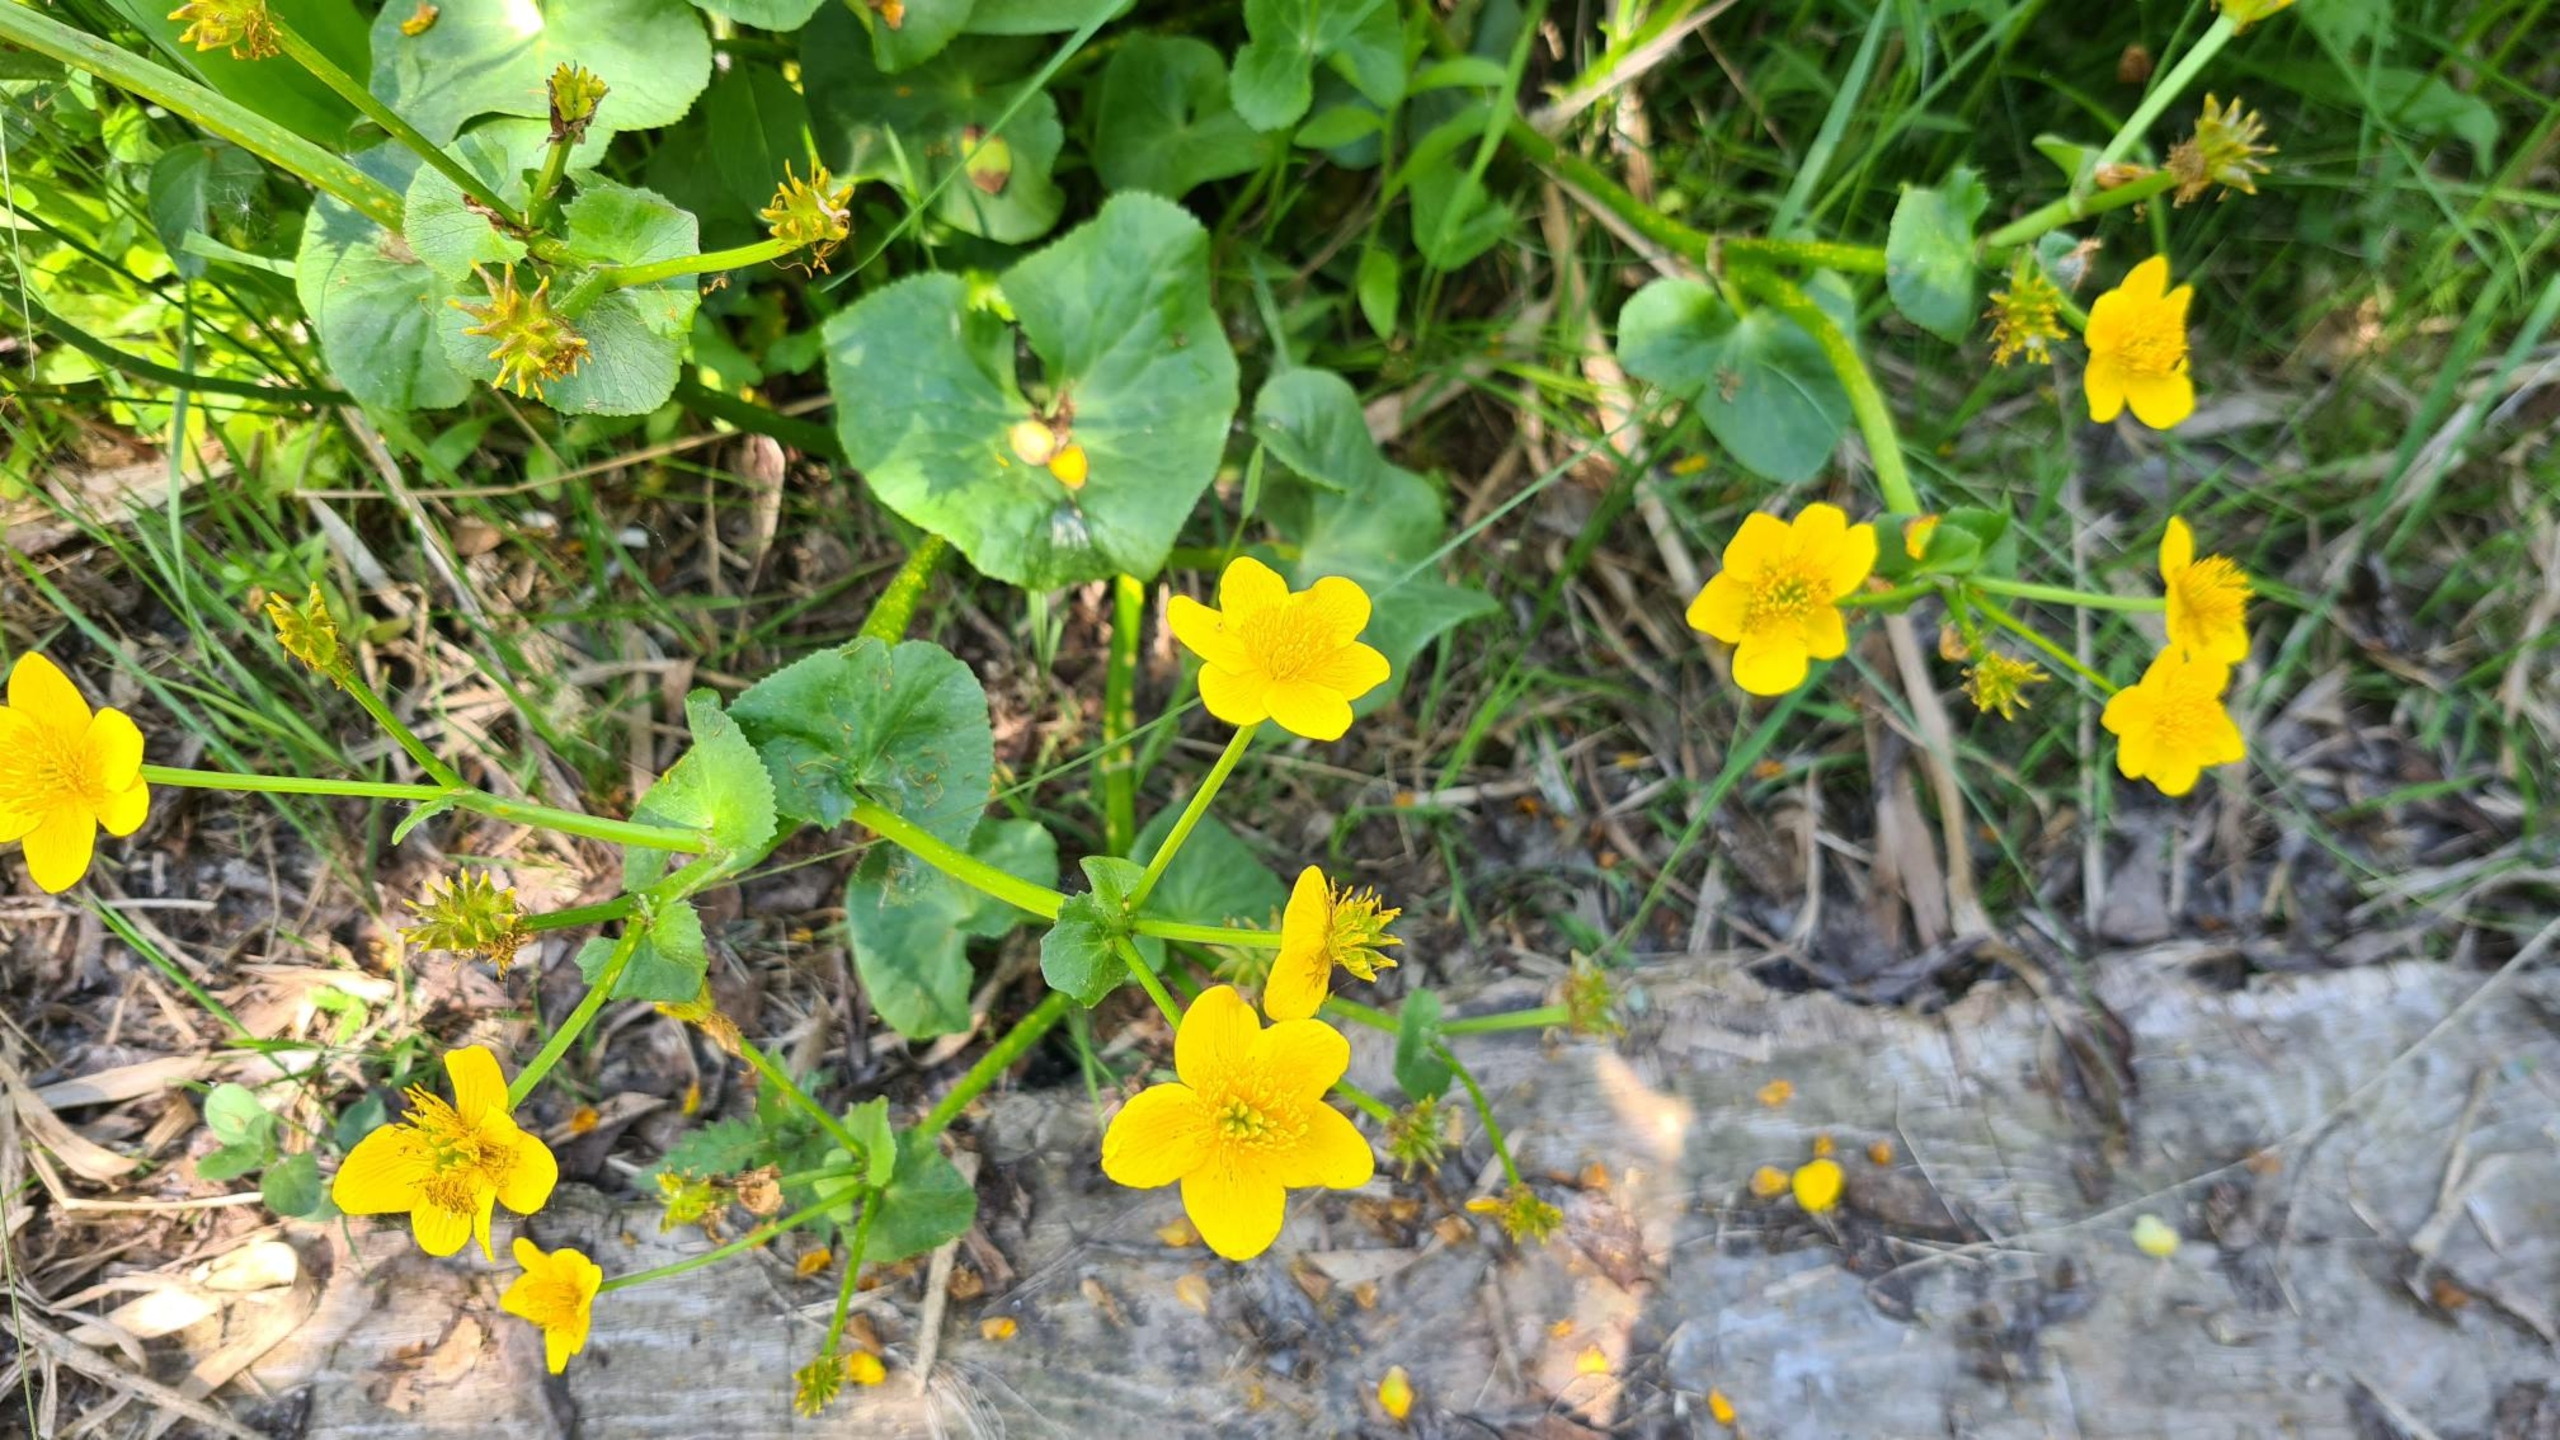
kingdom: Plantae
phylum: Tracheophyta
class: Magnoliopsida
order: Ranunculales
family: Ranunculaceae
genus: Caltha
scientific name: Caltha palustris
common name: Eng-kabbeleje
